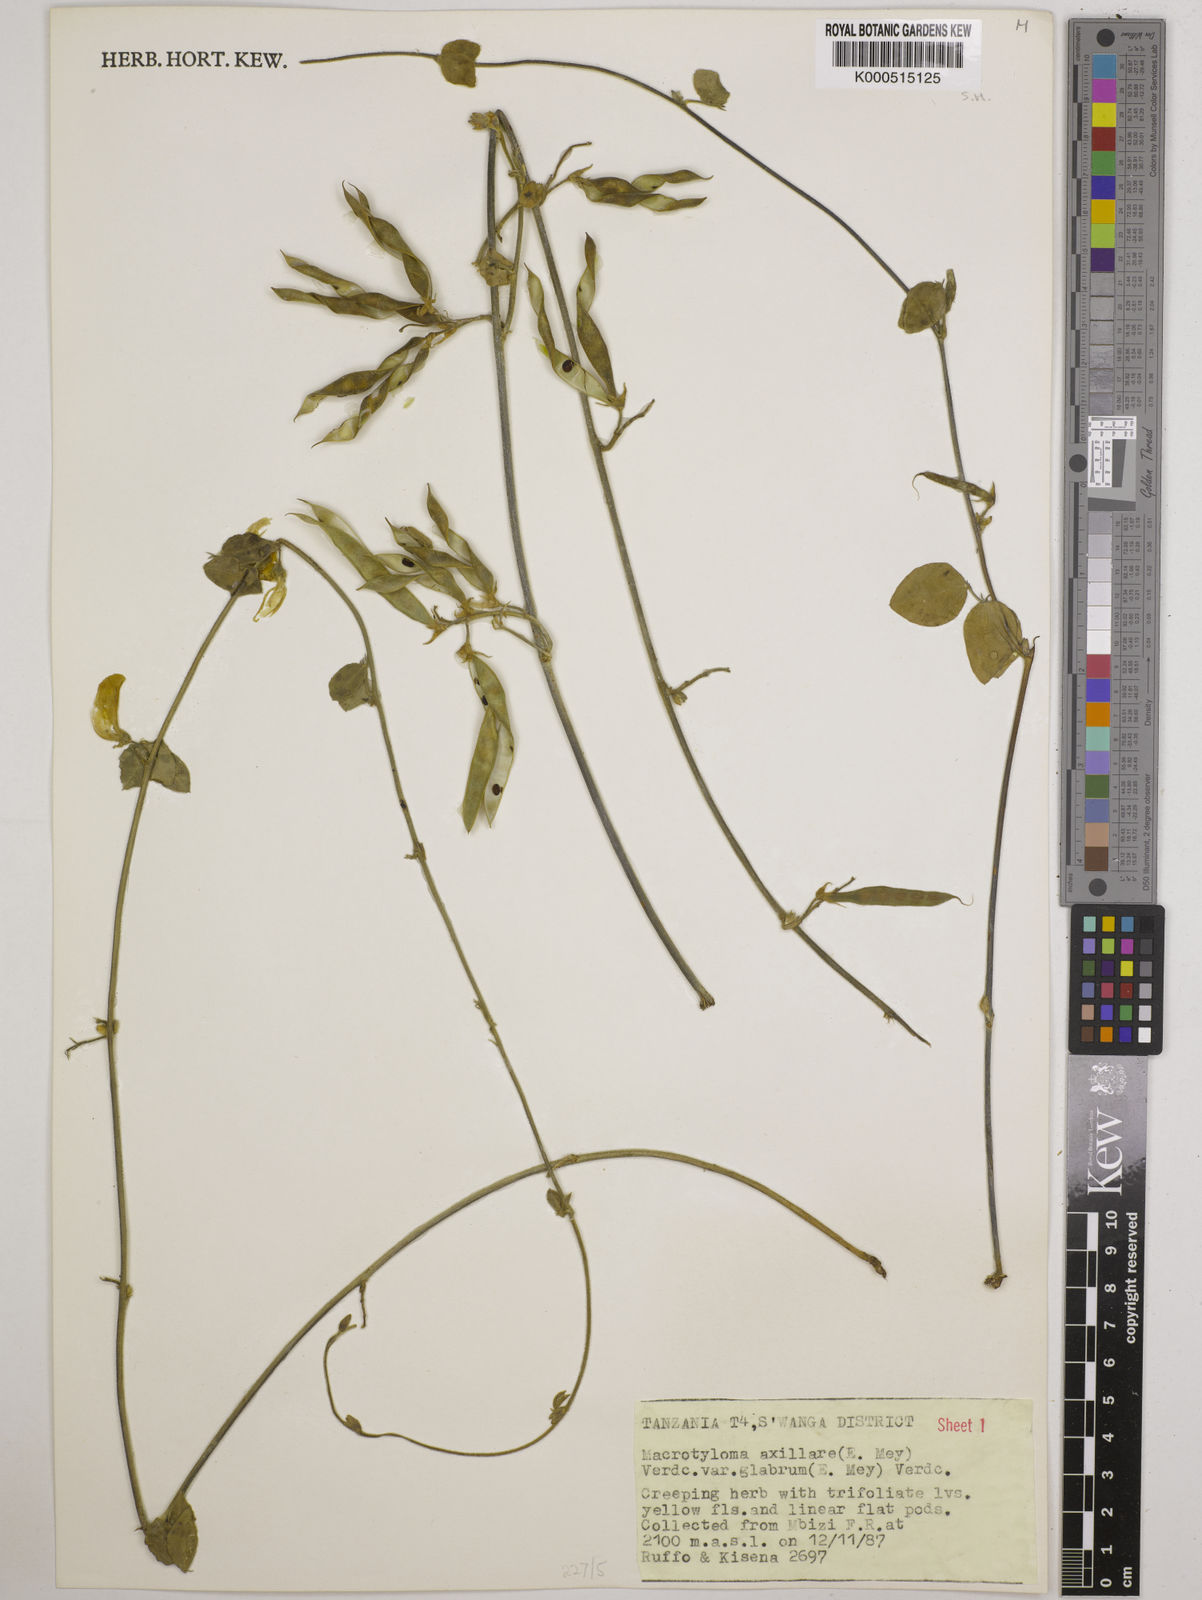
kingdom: Plantae
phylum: Tracheophyta
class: Magnoliopsida
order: Fabales
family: Fabaceae
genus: Macrotyloma
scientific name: Macrotyloma
